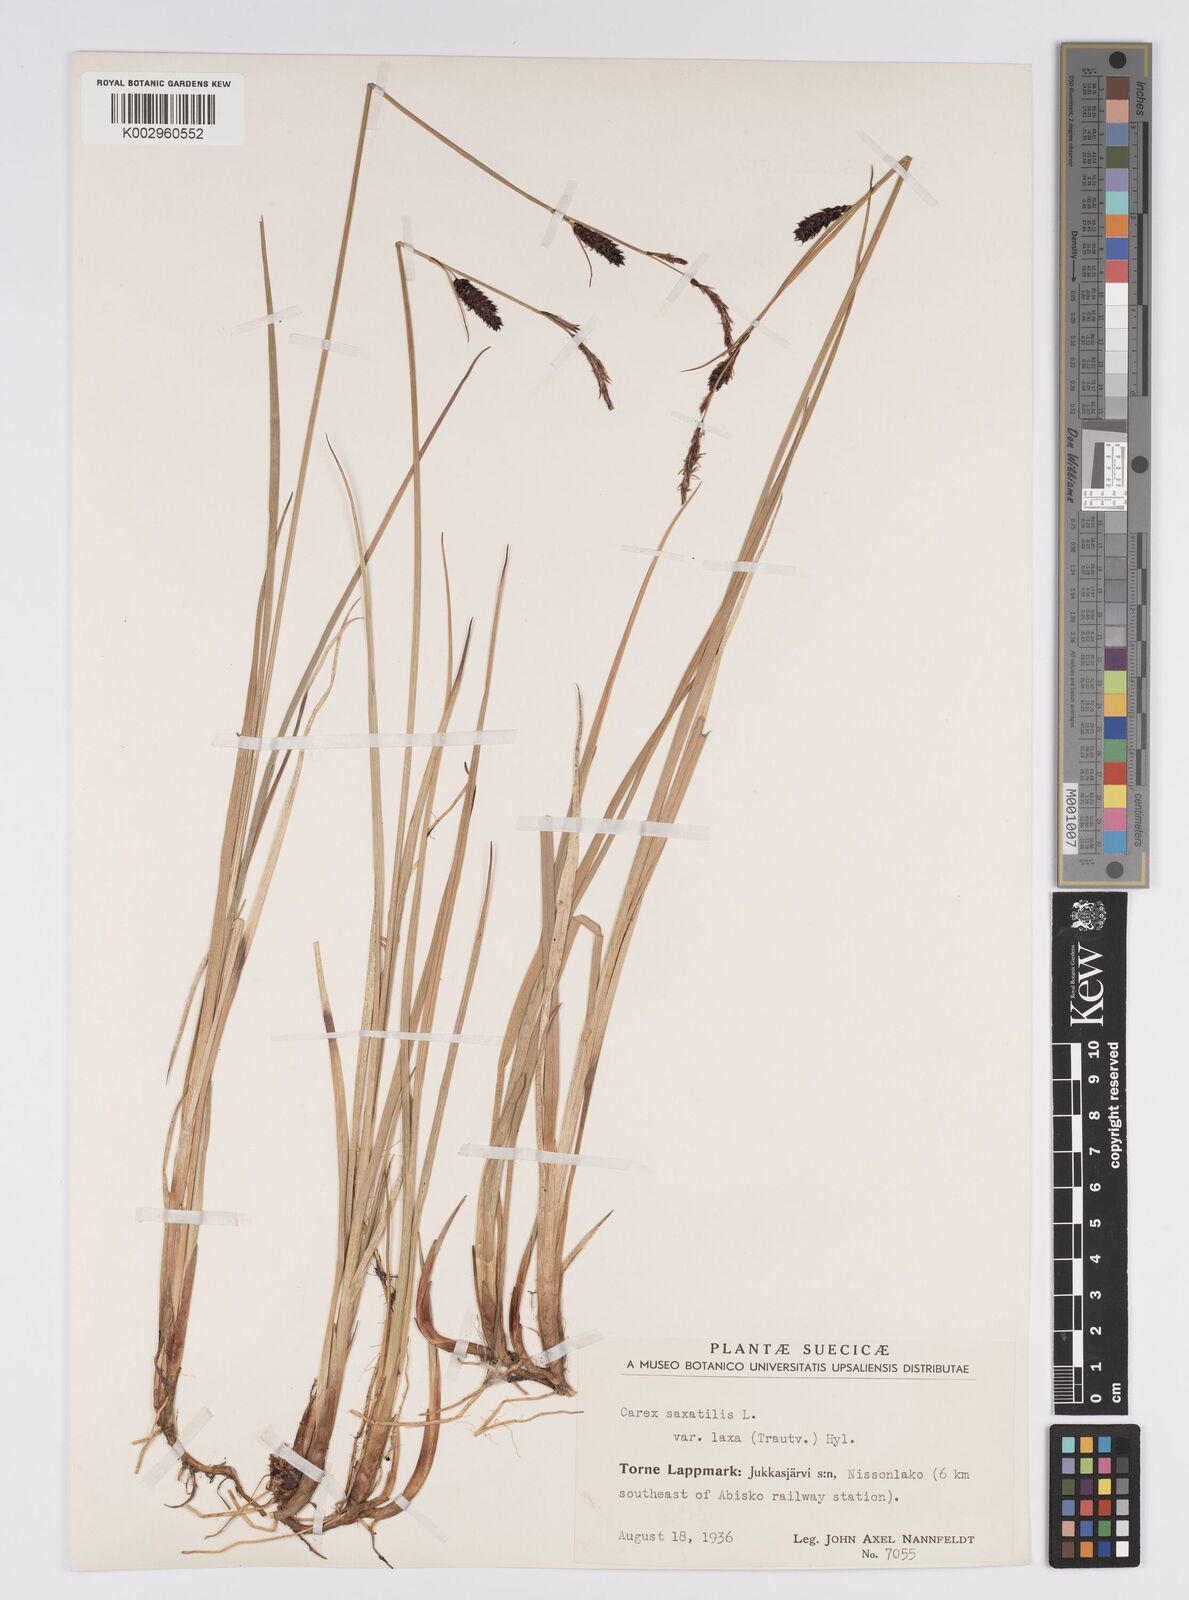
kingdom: Plantae
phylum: Tracheophyta
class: Liliopsida
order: Poales
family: Cyperaceae
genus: Carex
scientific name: Carex saxatilis
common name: Russet sedge
